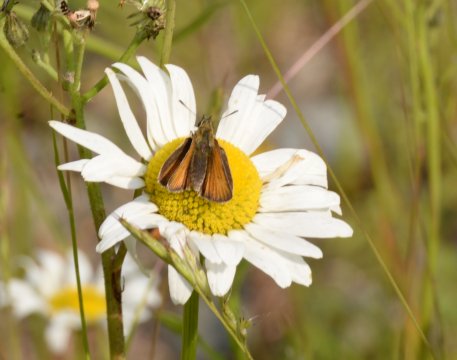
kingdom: Animalia
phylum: Arthropoda
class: Insecta
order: Lepidoptera
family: Hesperiidae
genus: Thymelicus
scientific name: Thymelicus lineola
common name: European Skipper
